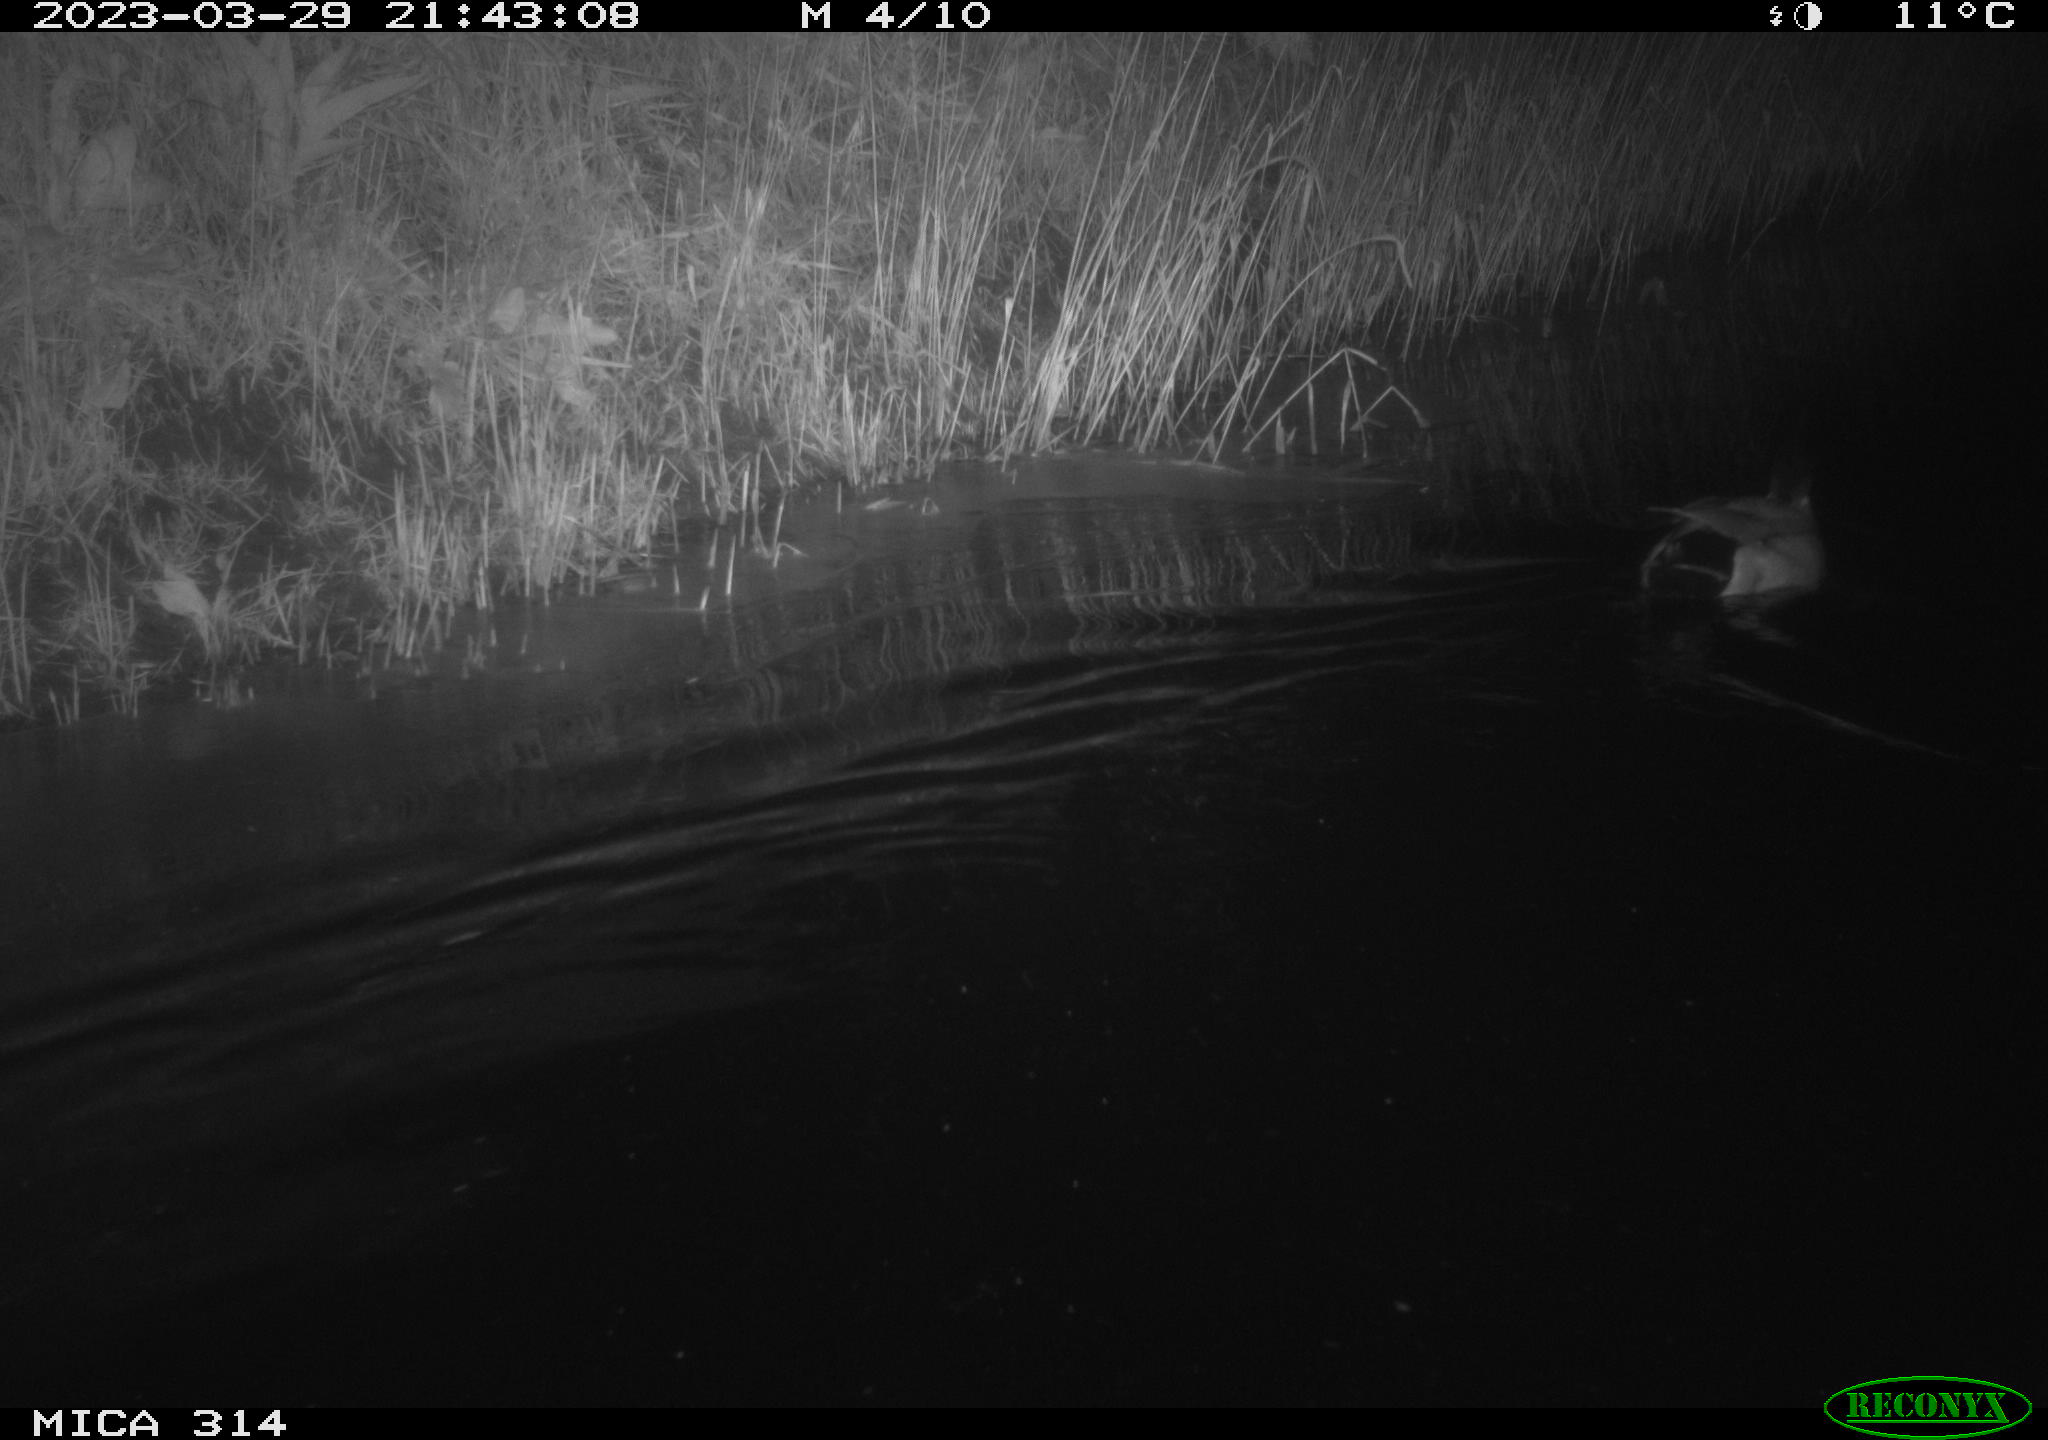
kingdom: Animalia
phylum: Chordata
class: Aves
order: Anseriformes
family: Anatidae
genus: Anas
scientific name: Anas
